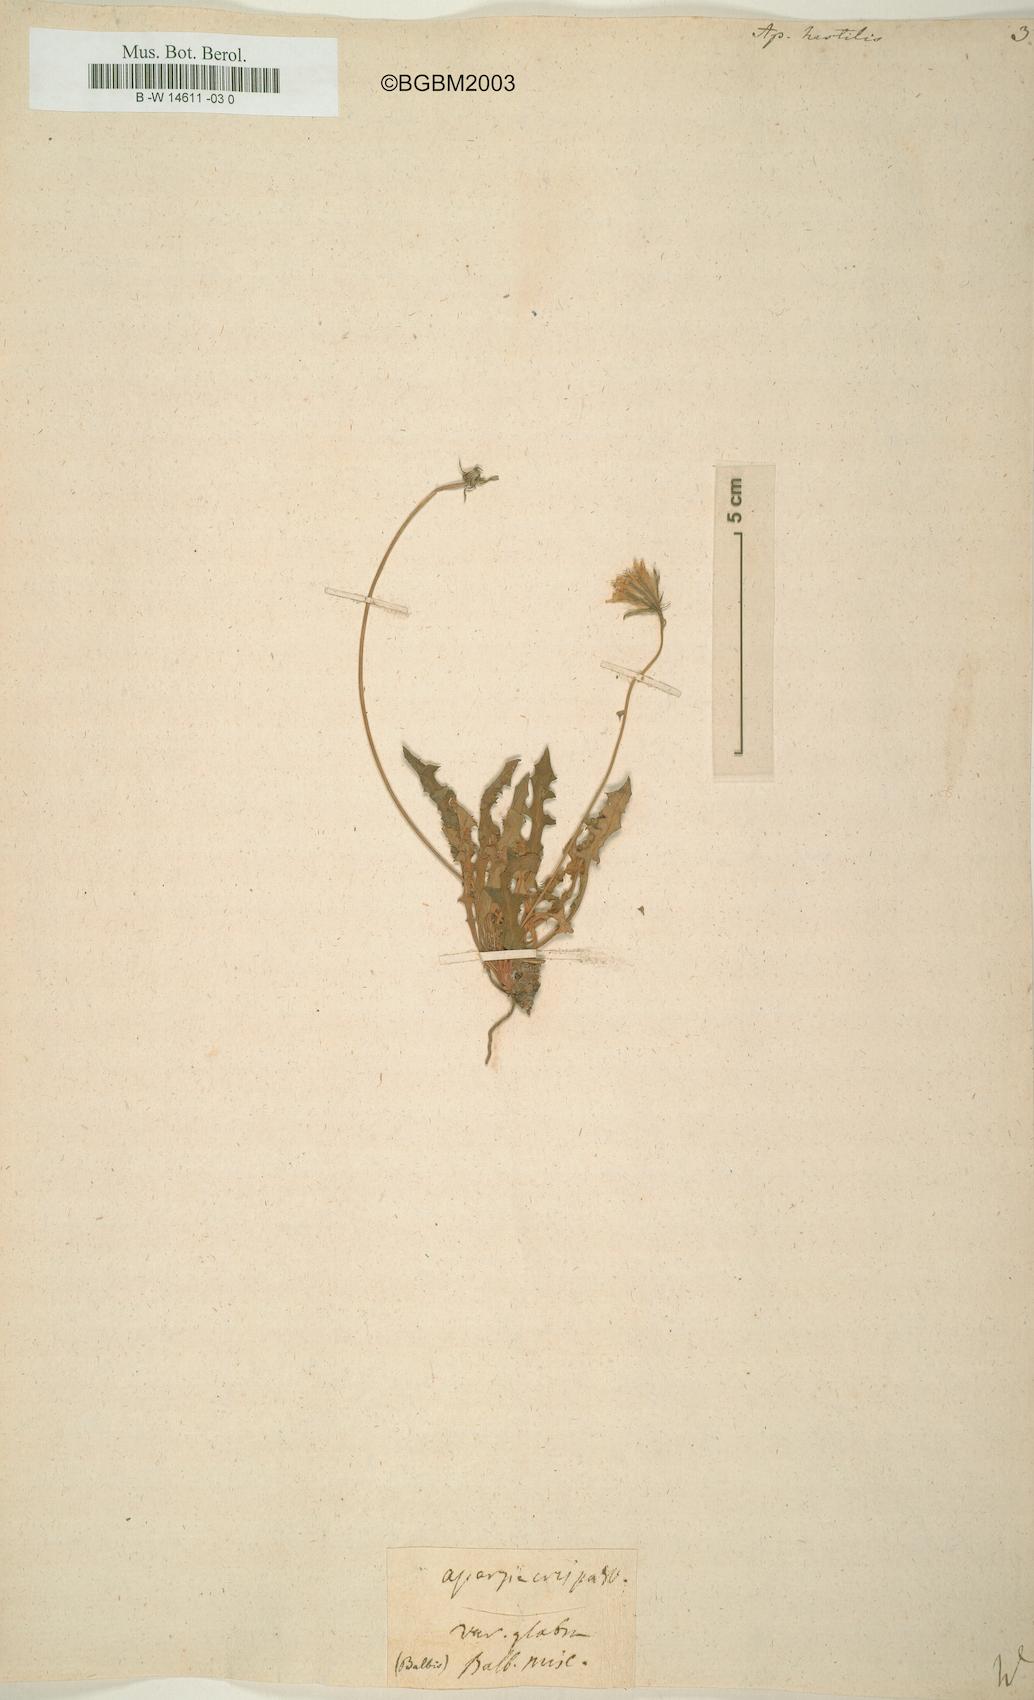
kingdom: Plantae
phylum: Tracheophyta
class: Magnoliopsida
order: Asterales
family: Asteraceae
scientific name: Asteraceae
